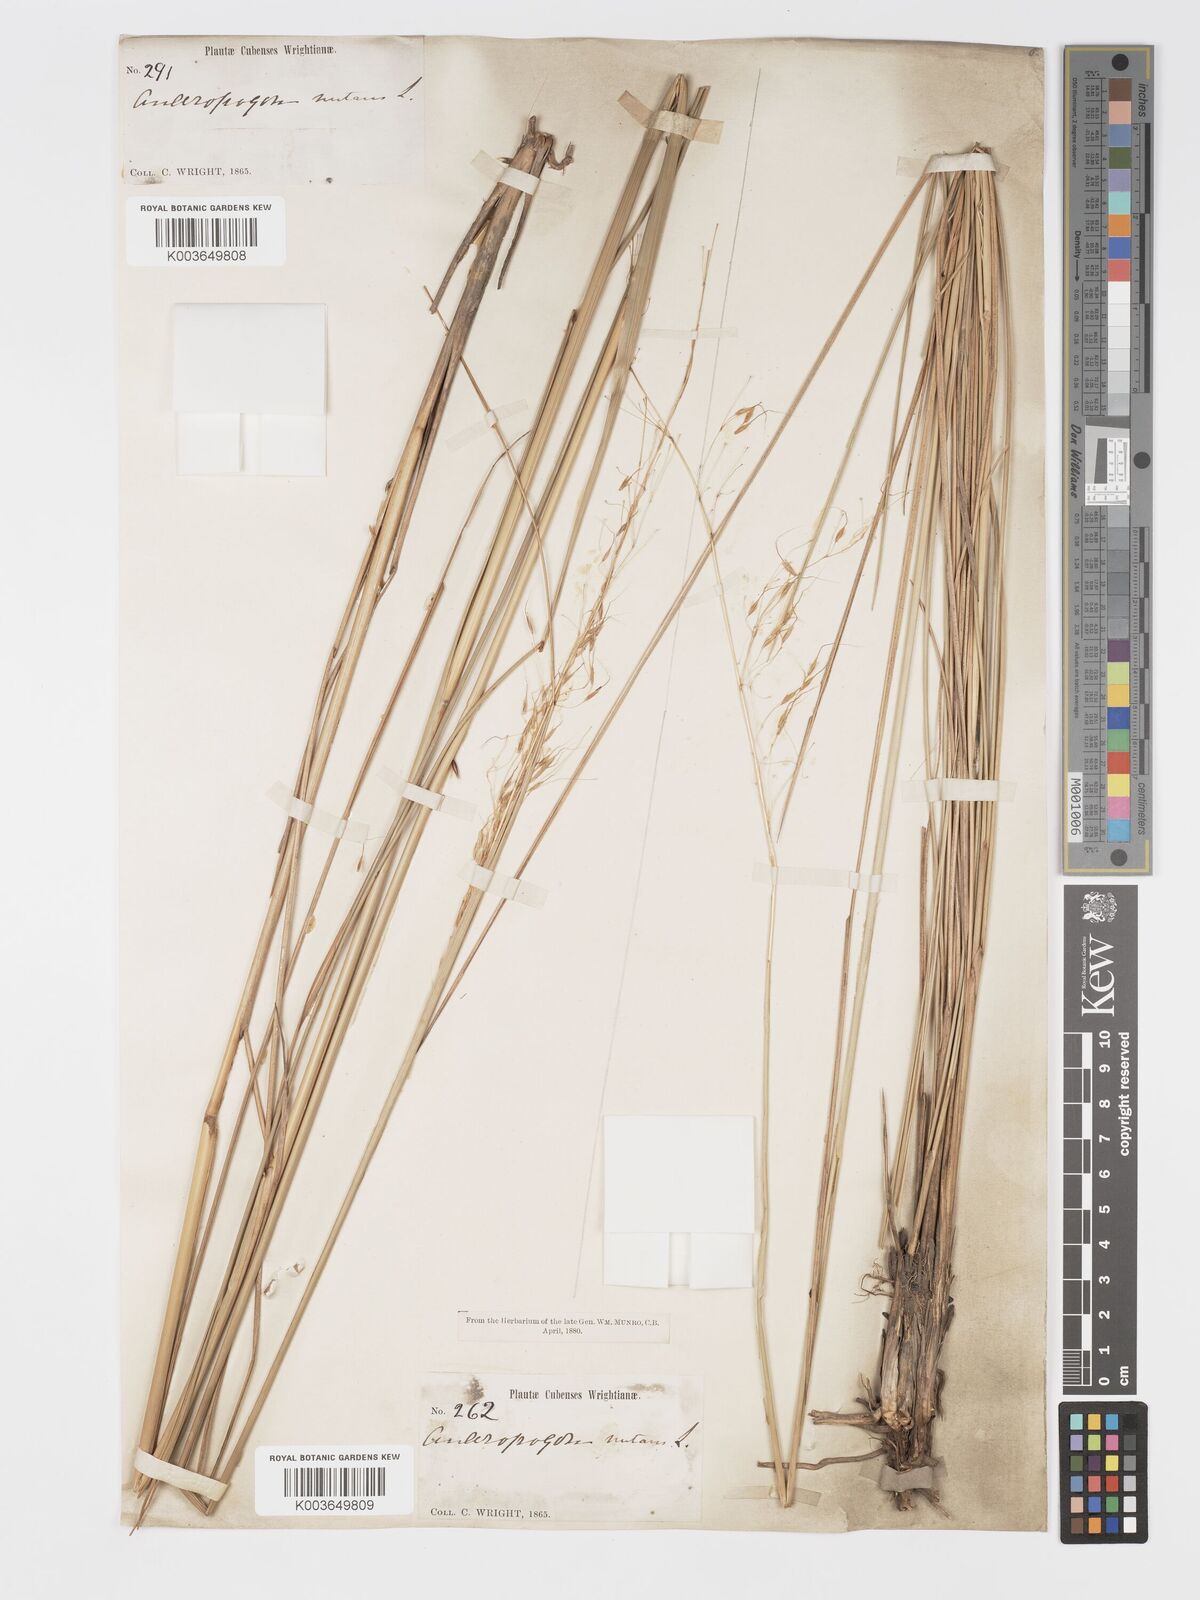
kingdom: Plantae
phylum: Tracheophyta
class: Liliopsida
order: Poales
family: Poaceae
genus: Sorghastrum
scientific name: Sorghastrum stipoides
